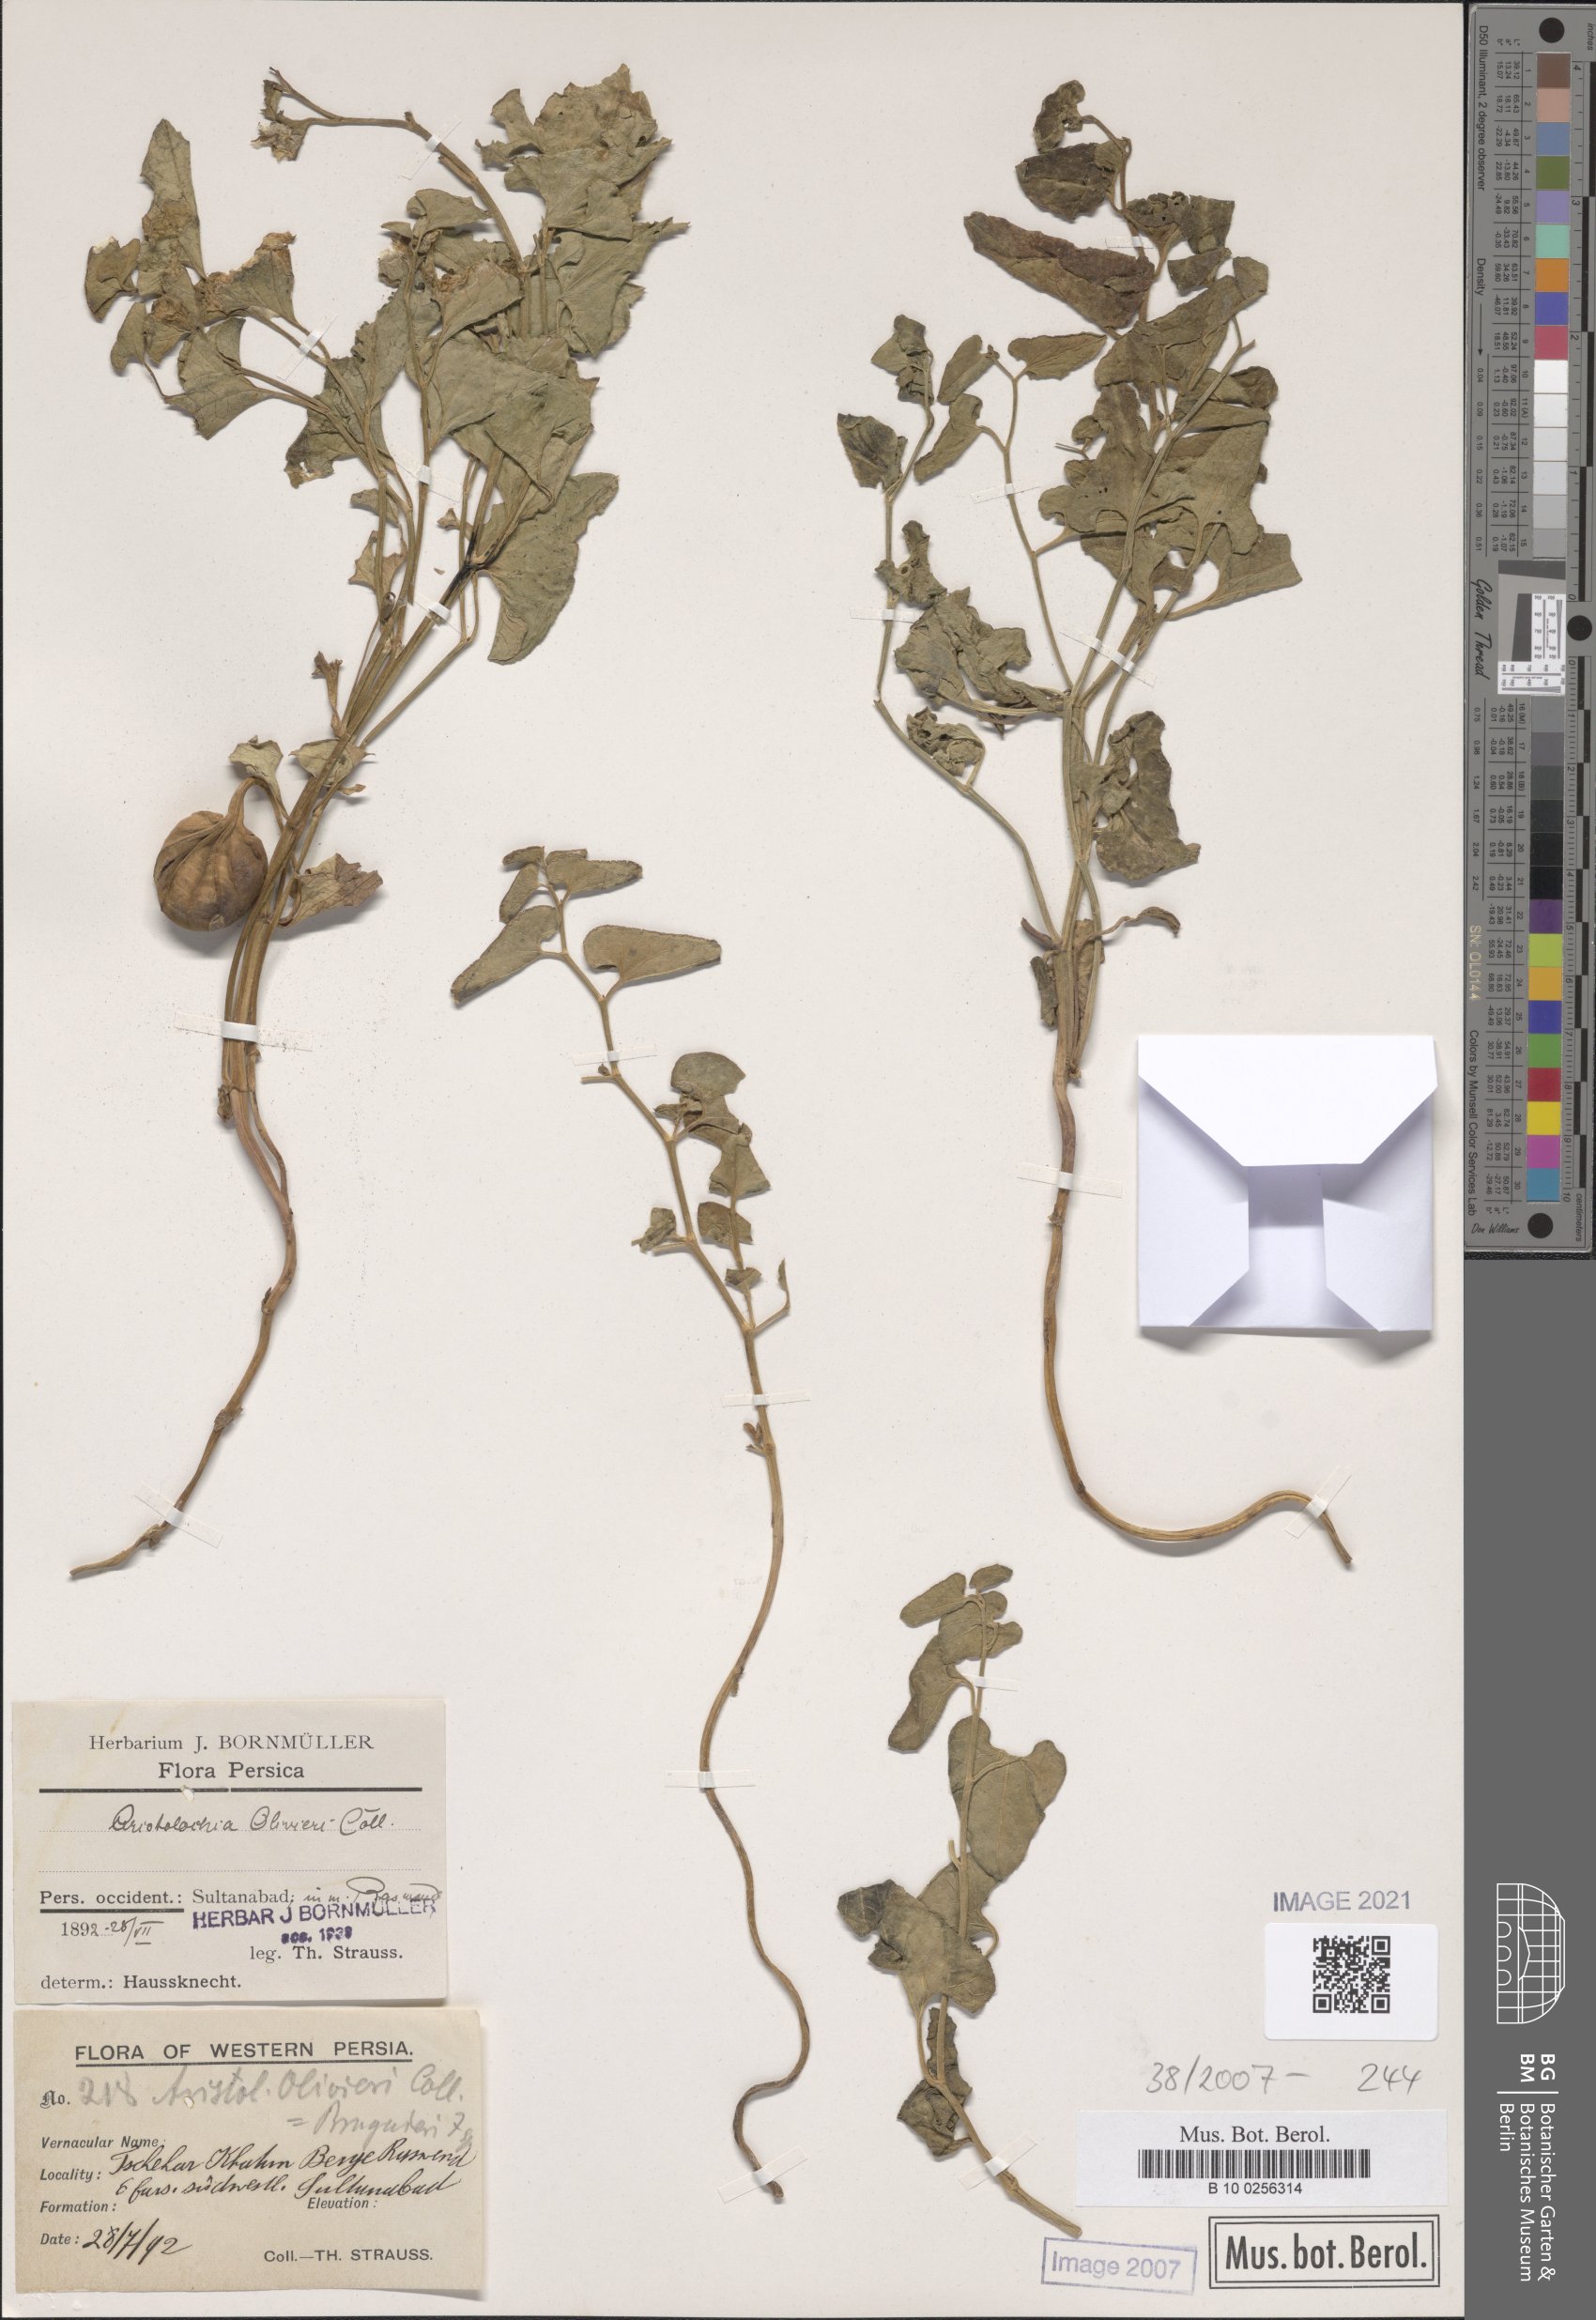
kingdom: Plantae
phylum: Tracheophyta
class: Magnoliopsida
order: Piperales
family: Aristolochiaceae
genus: Aristolochia
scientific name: Aristolochia olivieri
